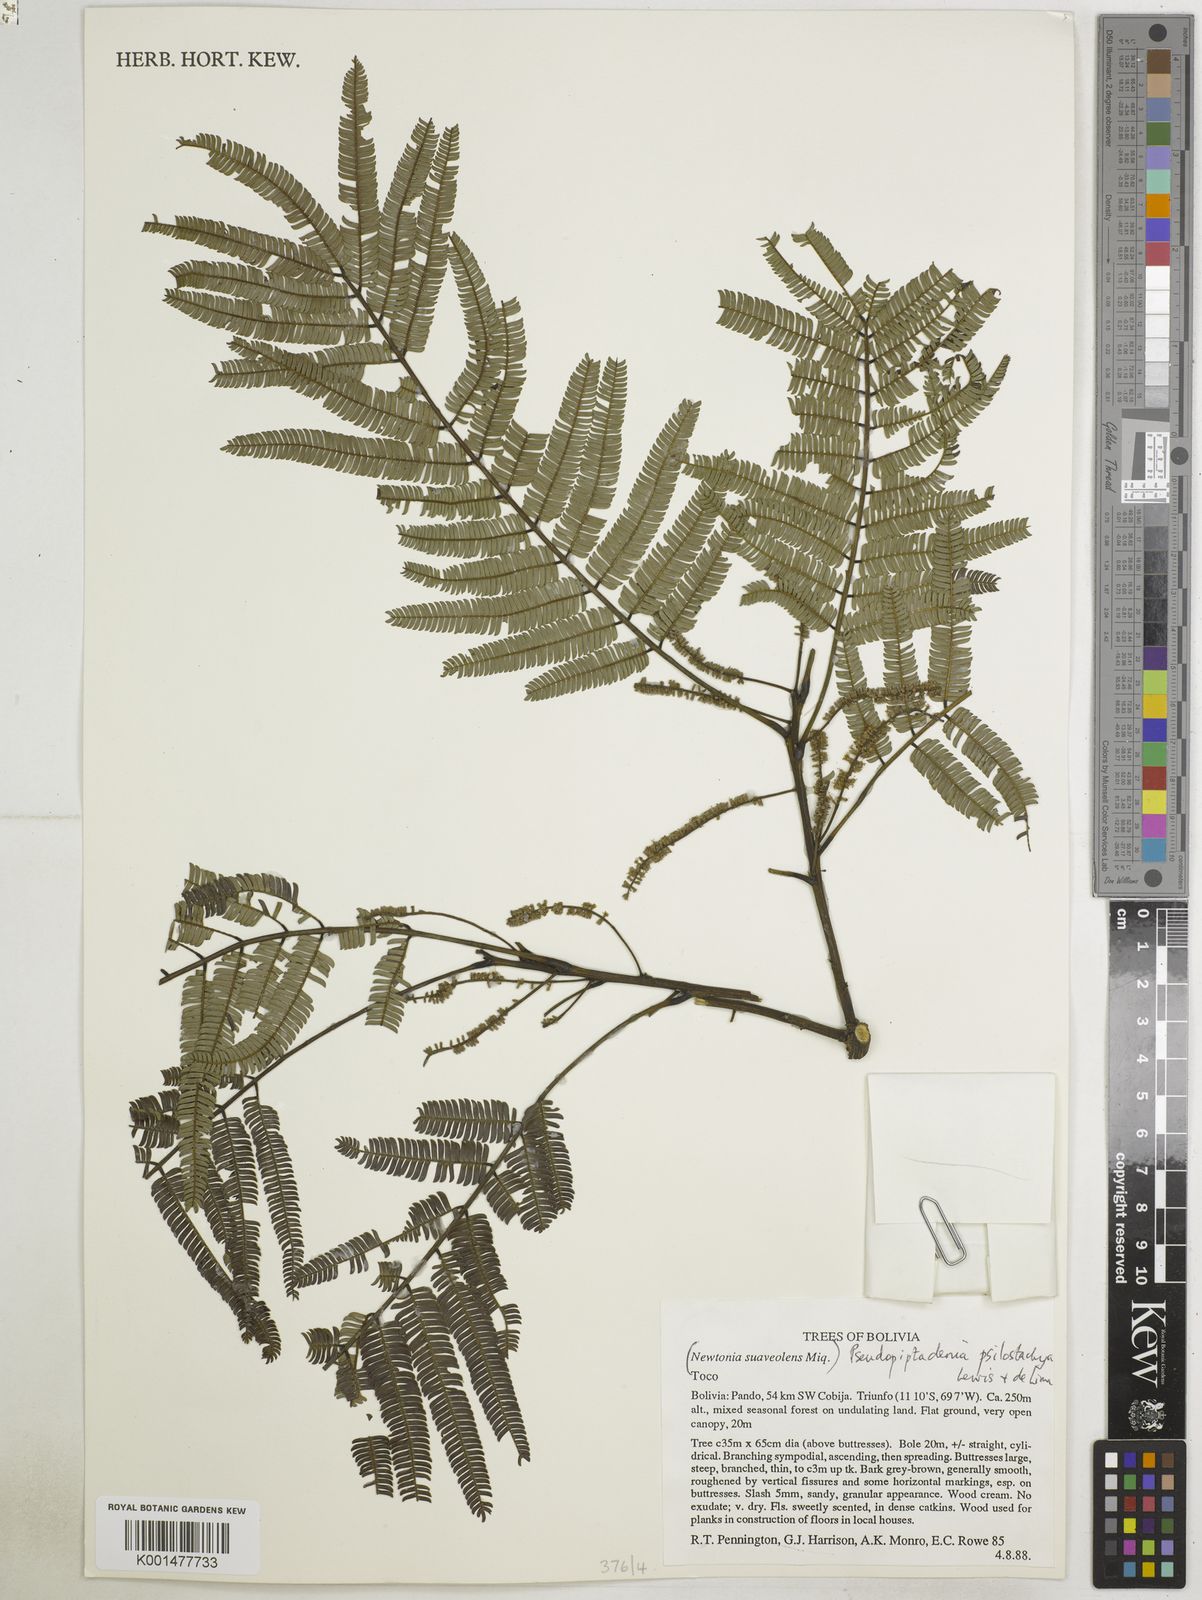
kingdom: Plantae
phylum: Tracheophyta
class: Magnoliopsida
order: Fabales
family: Fabaceae
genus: Pseudopiptadenia
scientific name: Pseudopiptadenia psilostachya
